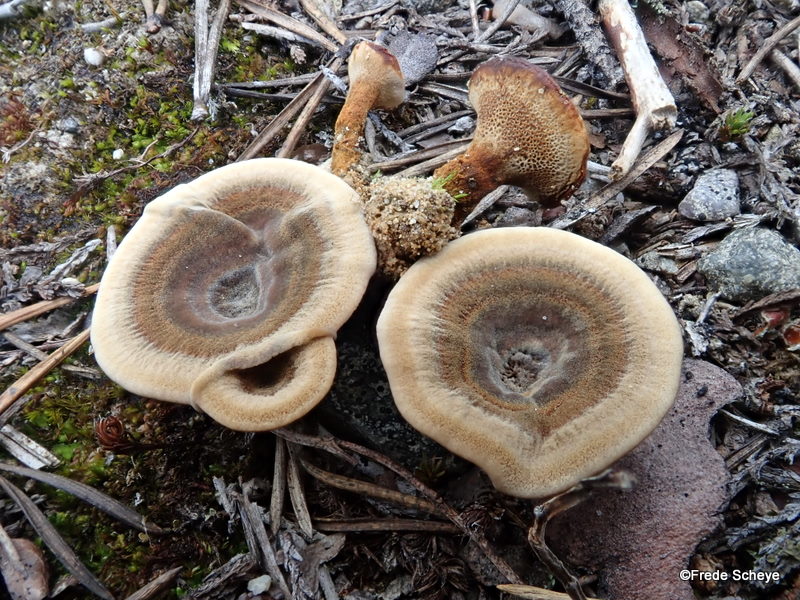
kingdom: Fungi
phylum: Basidiomycota
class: Agaricomycetes
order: Hymenochaetales
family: Hymenochaetaceae
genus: Coltricia
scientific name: Coltricia perennis
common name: almindelig sandporesvamp
